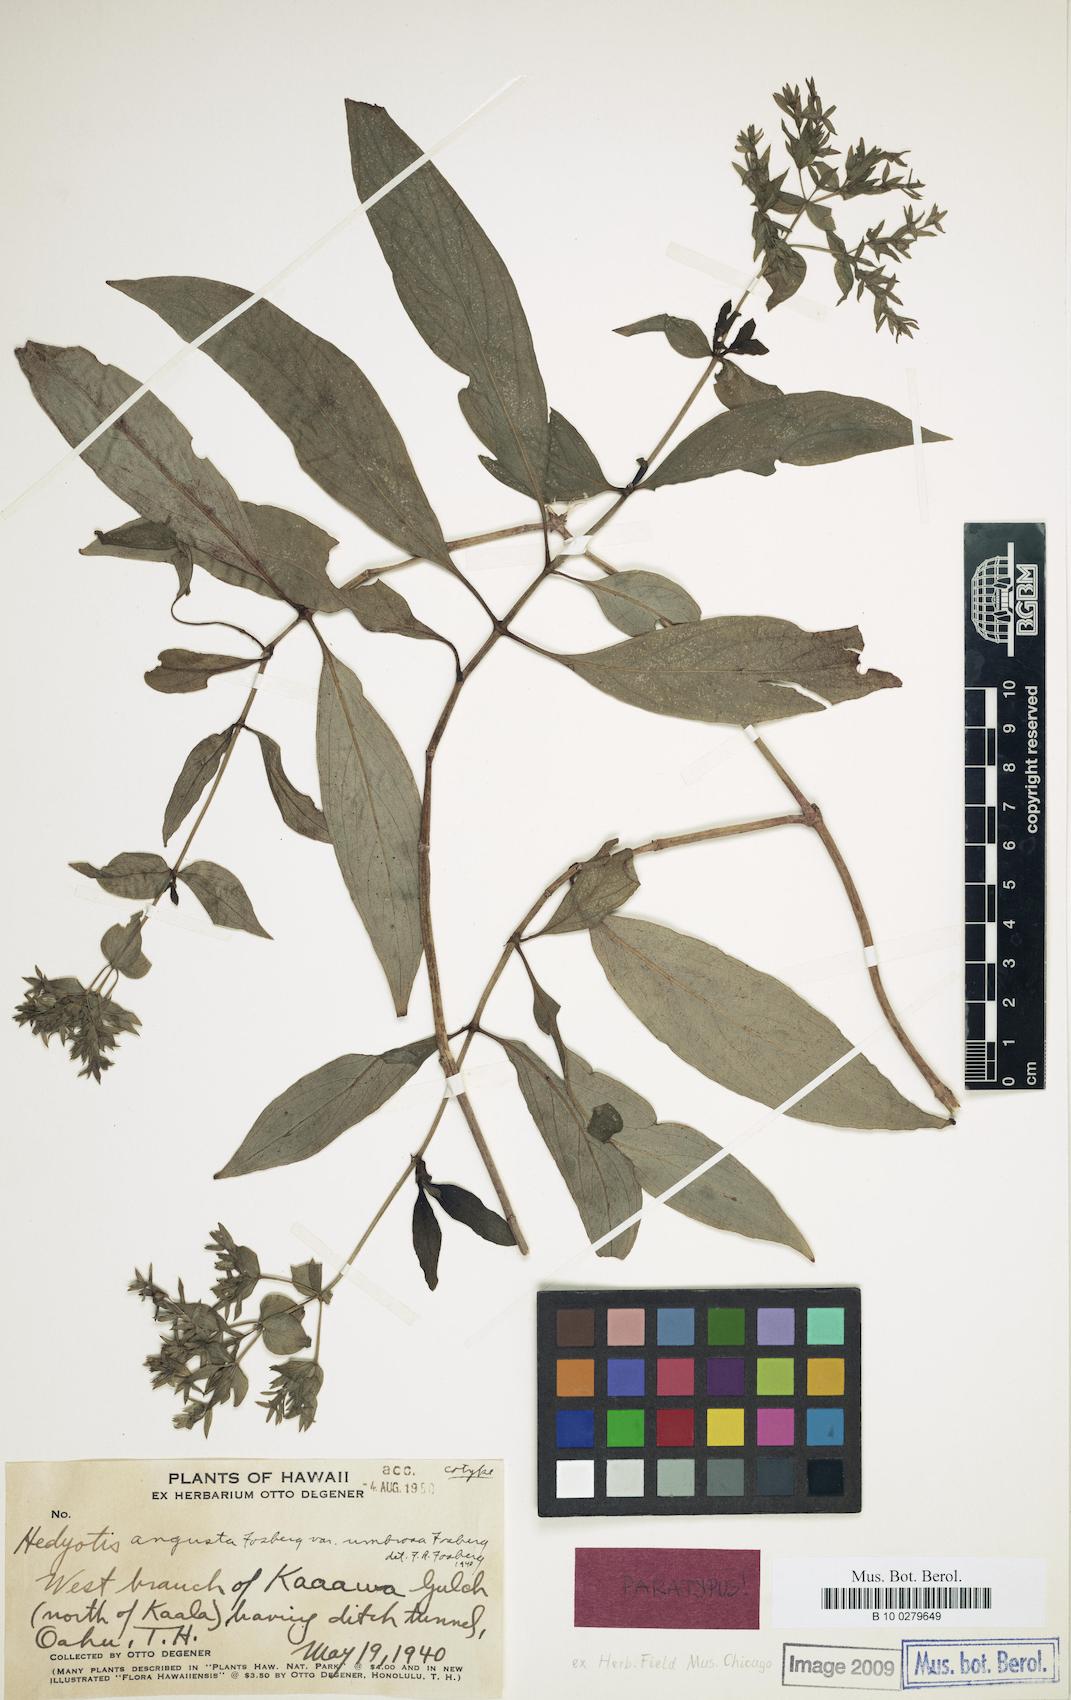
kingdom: Plantae
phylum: Tracheophyta
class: Magnoliopsida
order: Gentianales
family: Rubiaceae
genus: Kadua
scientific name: Kadua cordata
